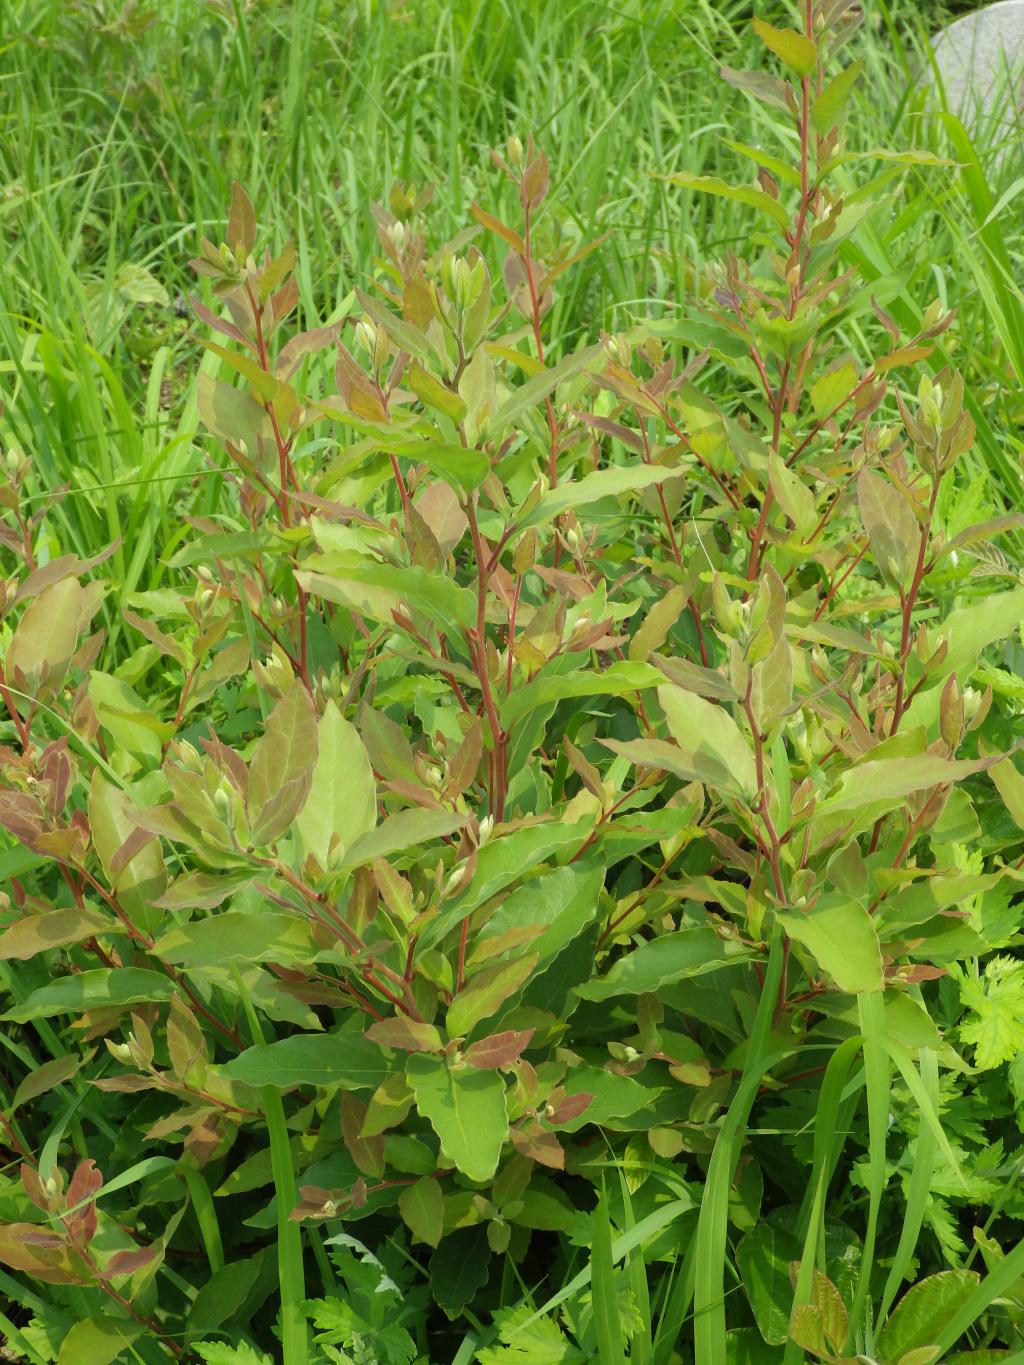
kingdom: Plantae
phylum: Tracheophyta
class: Magnoliopsida
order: Laurales
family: Lauraceae
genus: Lindera
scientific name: Lindera glauca
